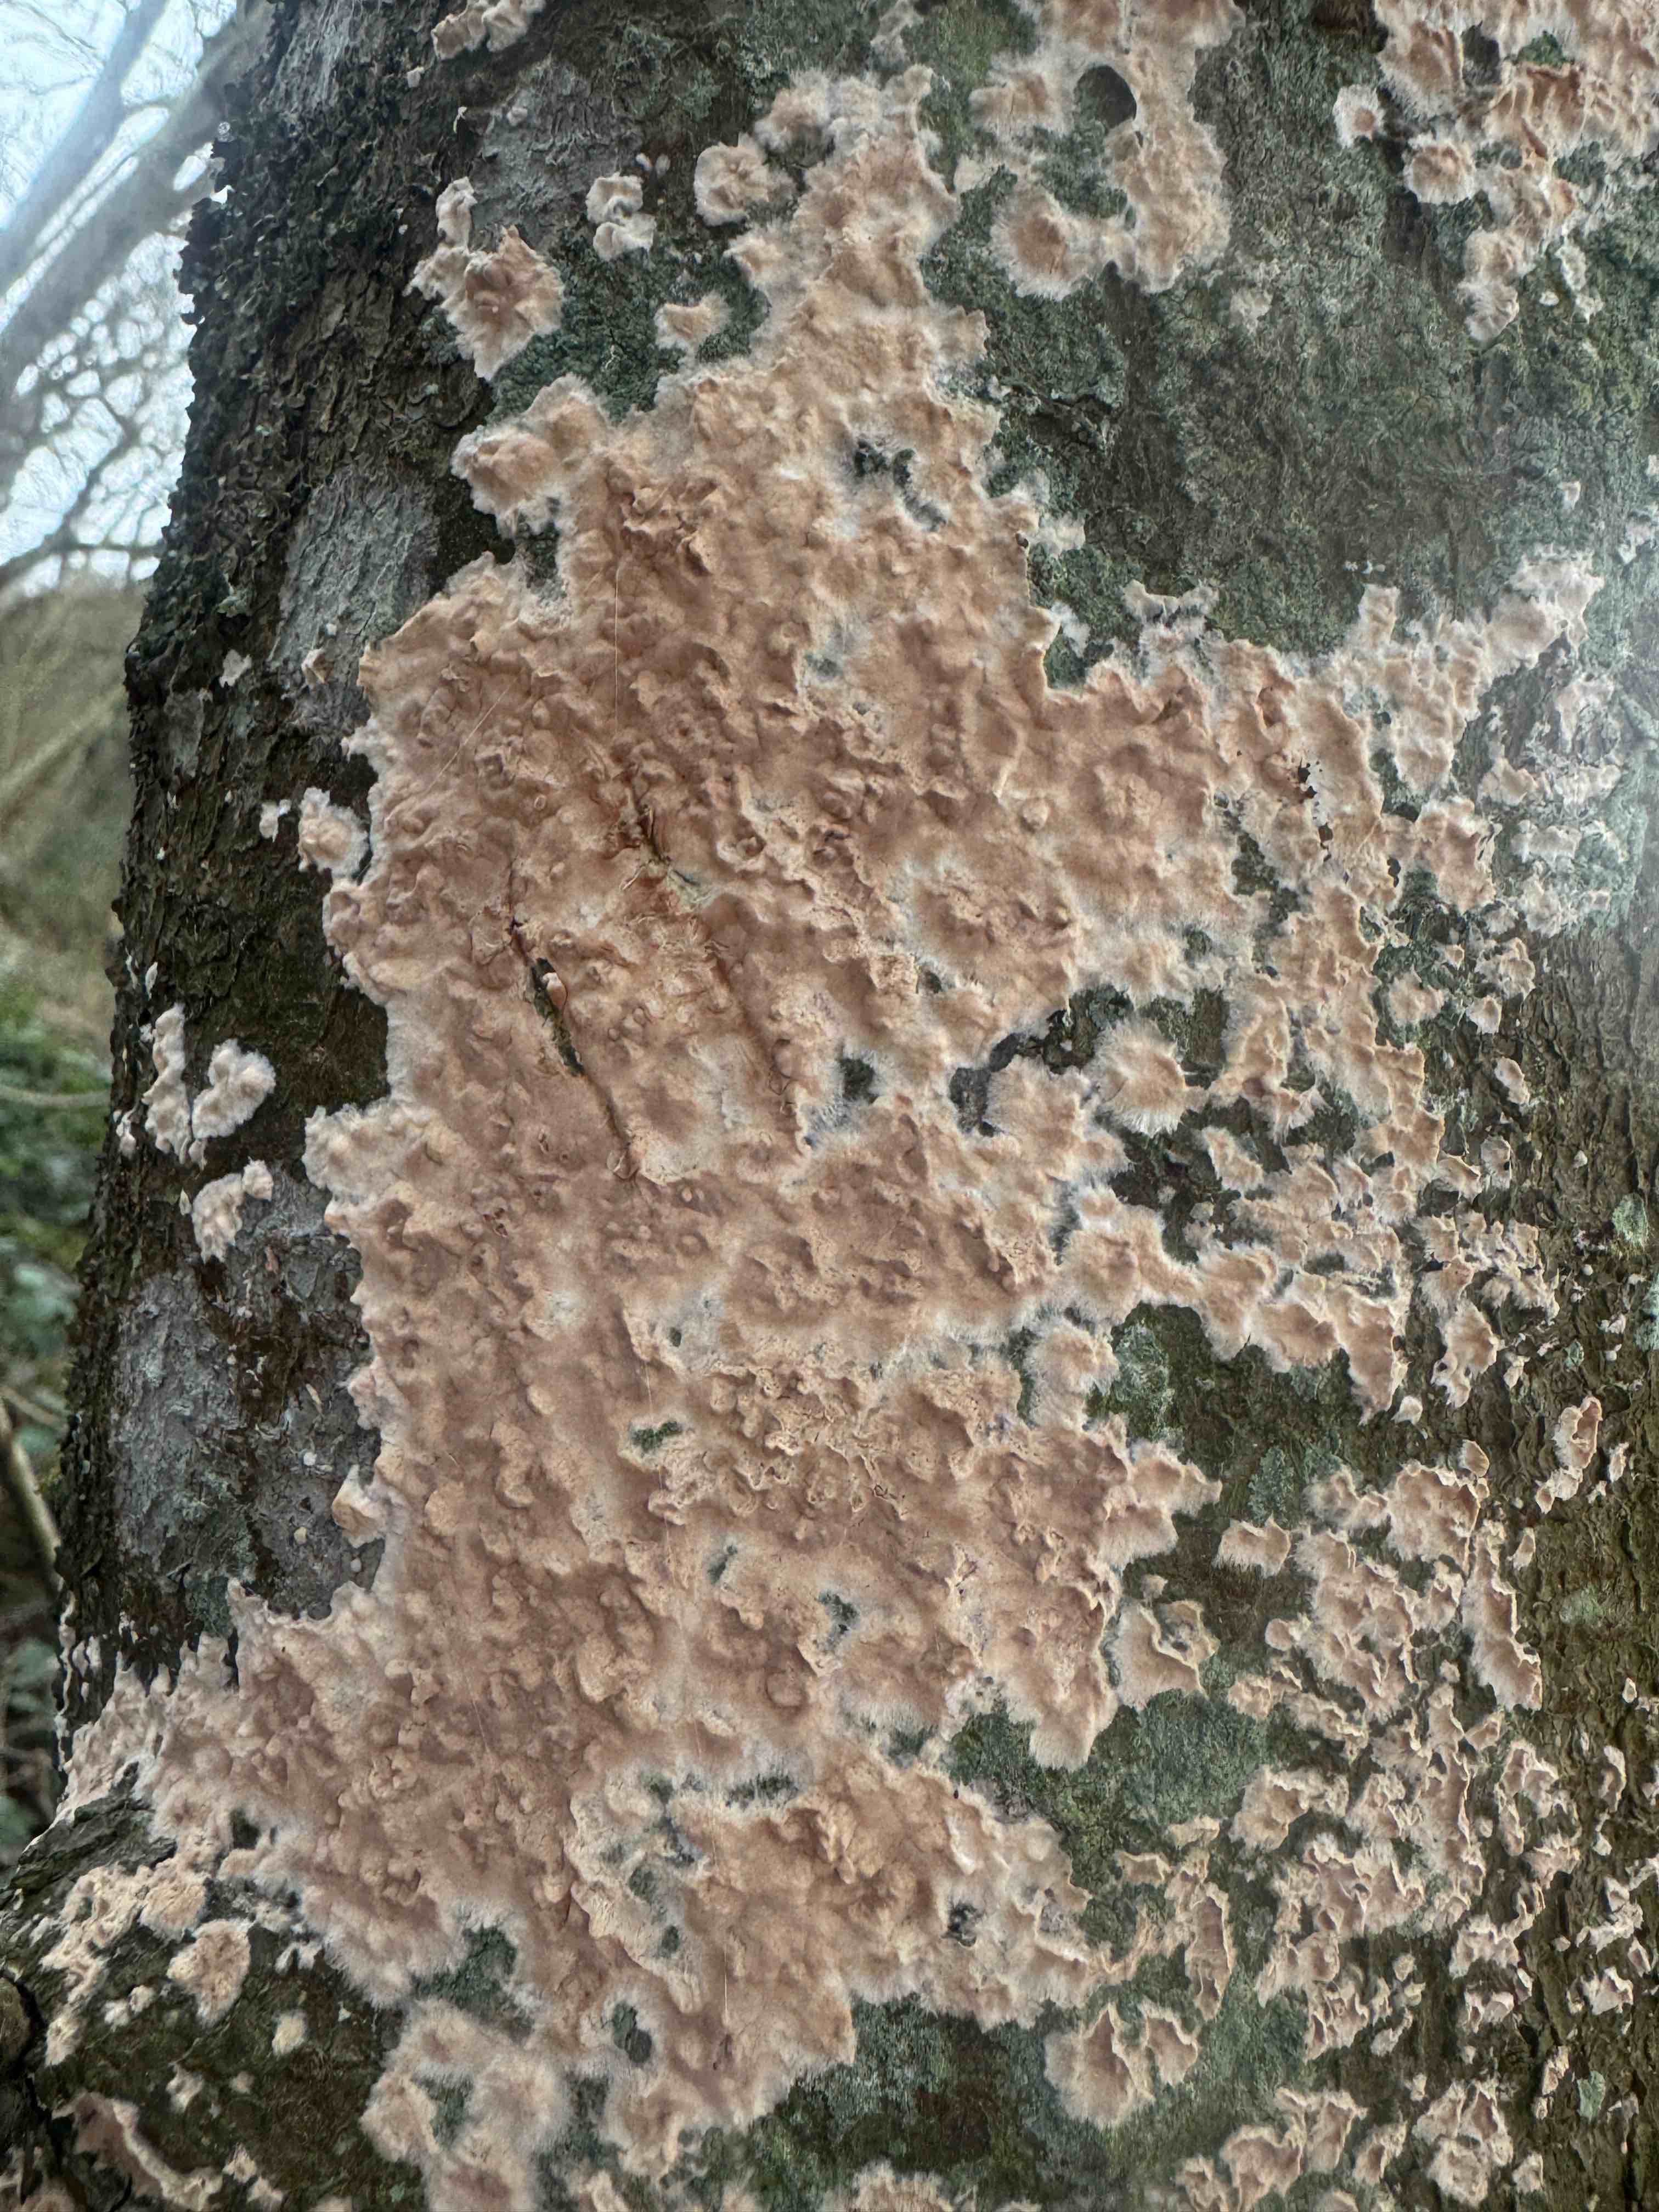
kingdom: Fungi
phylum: Basidiomycota
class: Agaricomycetes
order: Agaricales
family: Physalacriaceae
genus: Cylindrobasidium
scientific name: Cylindrobasidium evolvens
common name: sprækkehinde
